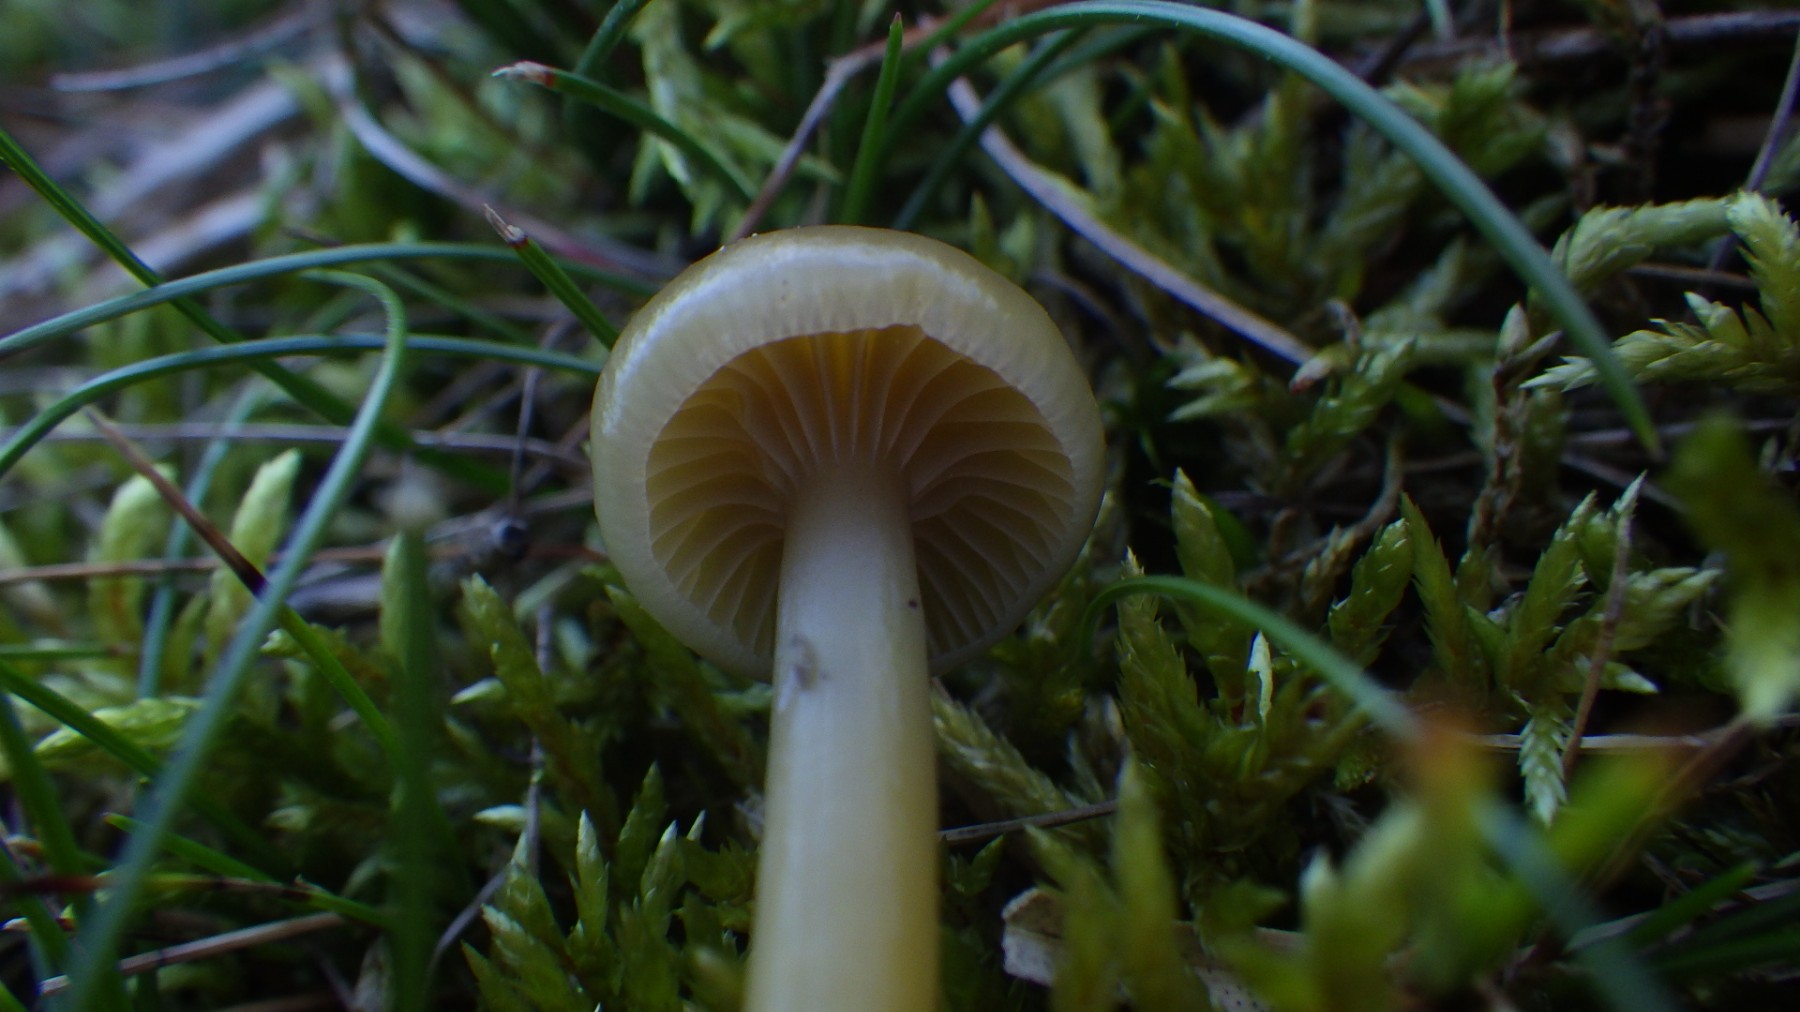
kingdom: Fungi
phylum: Basidiomycota
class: Agaricomycetes
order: Agaricales
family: Hygrophoraceae
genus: Gliophorus
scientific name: Gliophorus laetus
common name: brusk-vokshat
